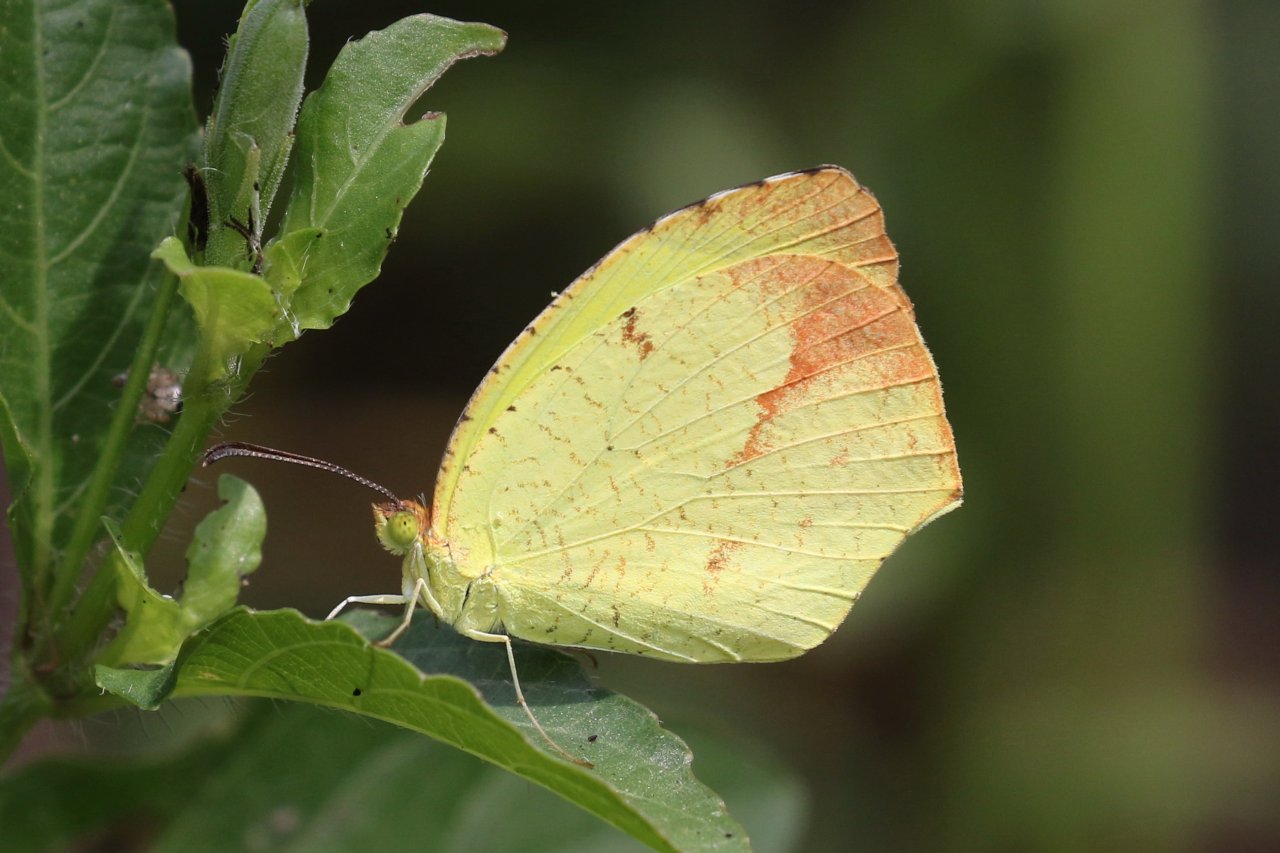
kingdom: Animalia
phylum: Arthropoda
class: Insecta
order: Lepidoptera
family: Pieridae
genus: Eurema
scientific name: Eurema boisduvaliana
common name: Boisduval's Yellow
